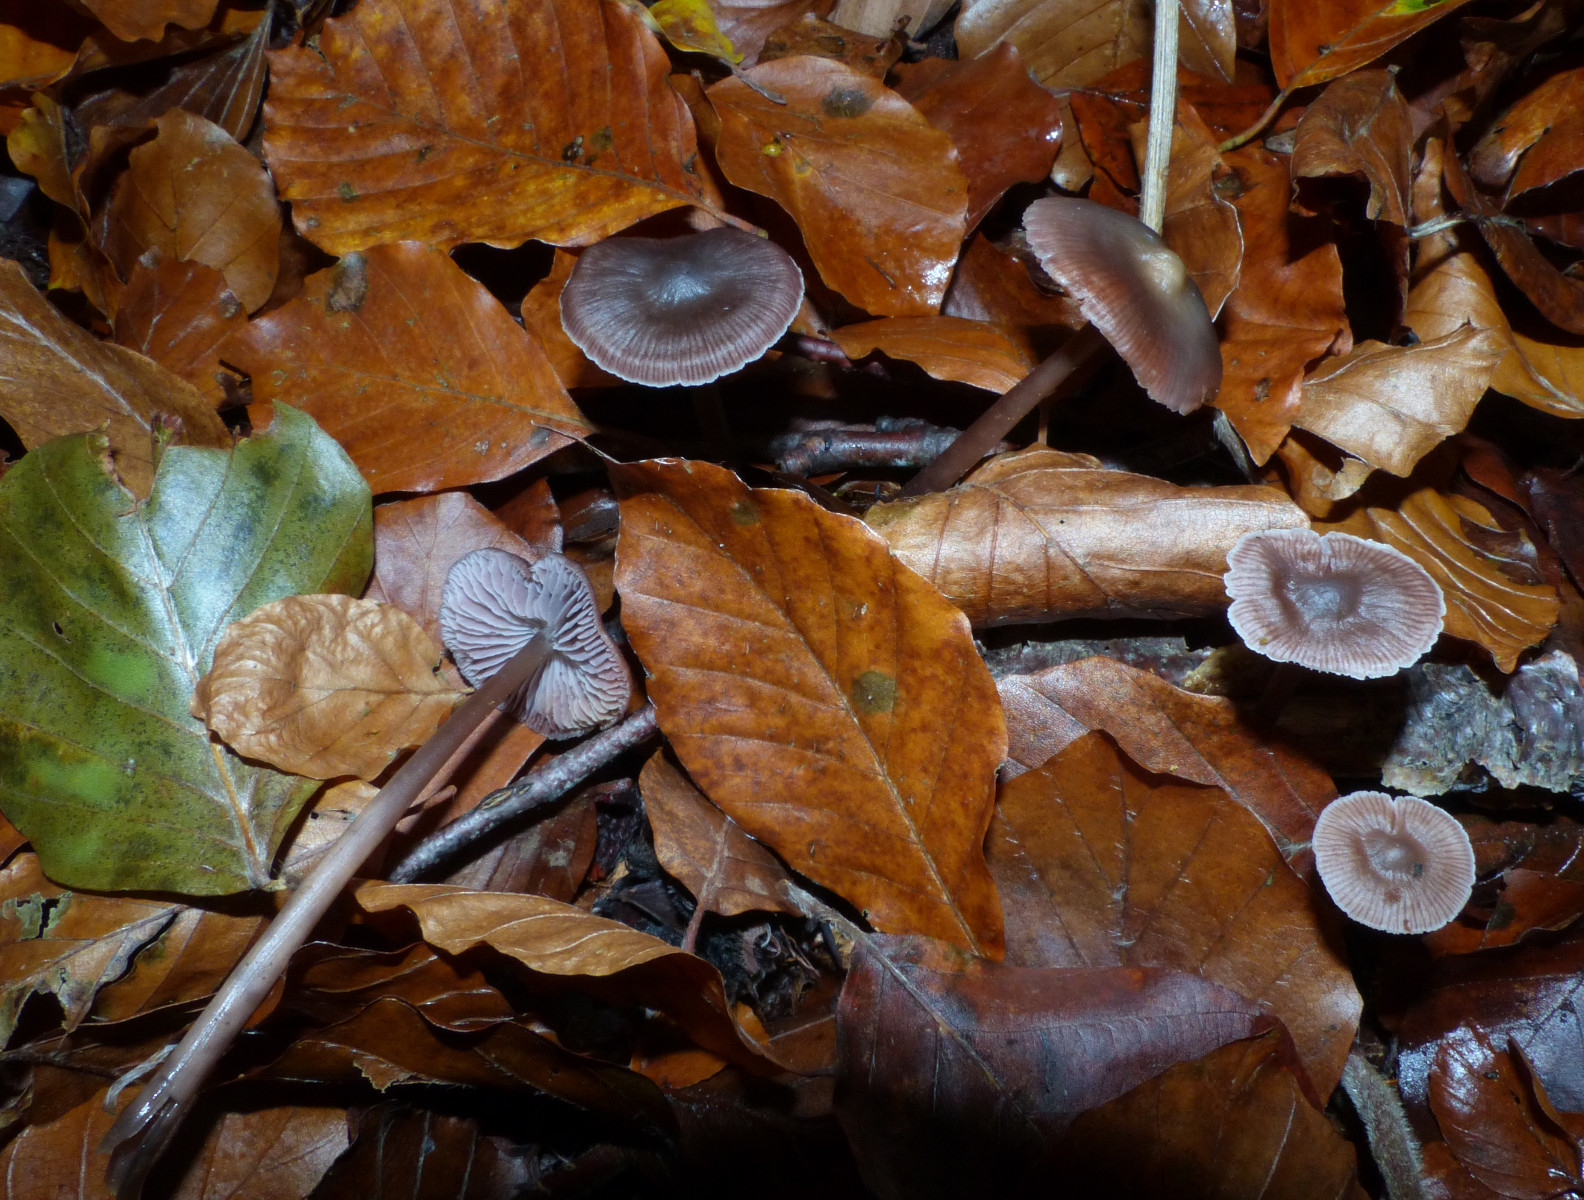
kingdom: Fungi
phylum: Basidiomycota
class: Agaricomycetes
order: Agaricales
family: Mycenaceae
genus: Prunulus
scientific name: Prunulus diosmus
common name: tobaks-huesvamp
